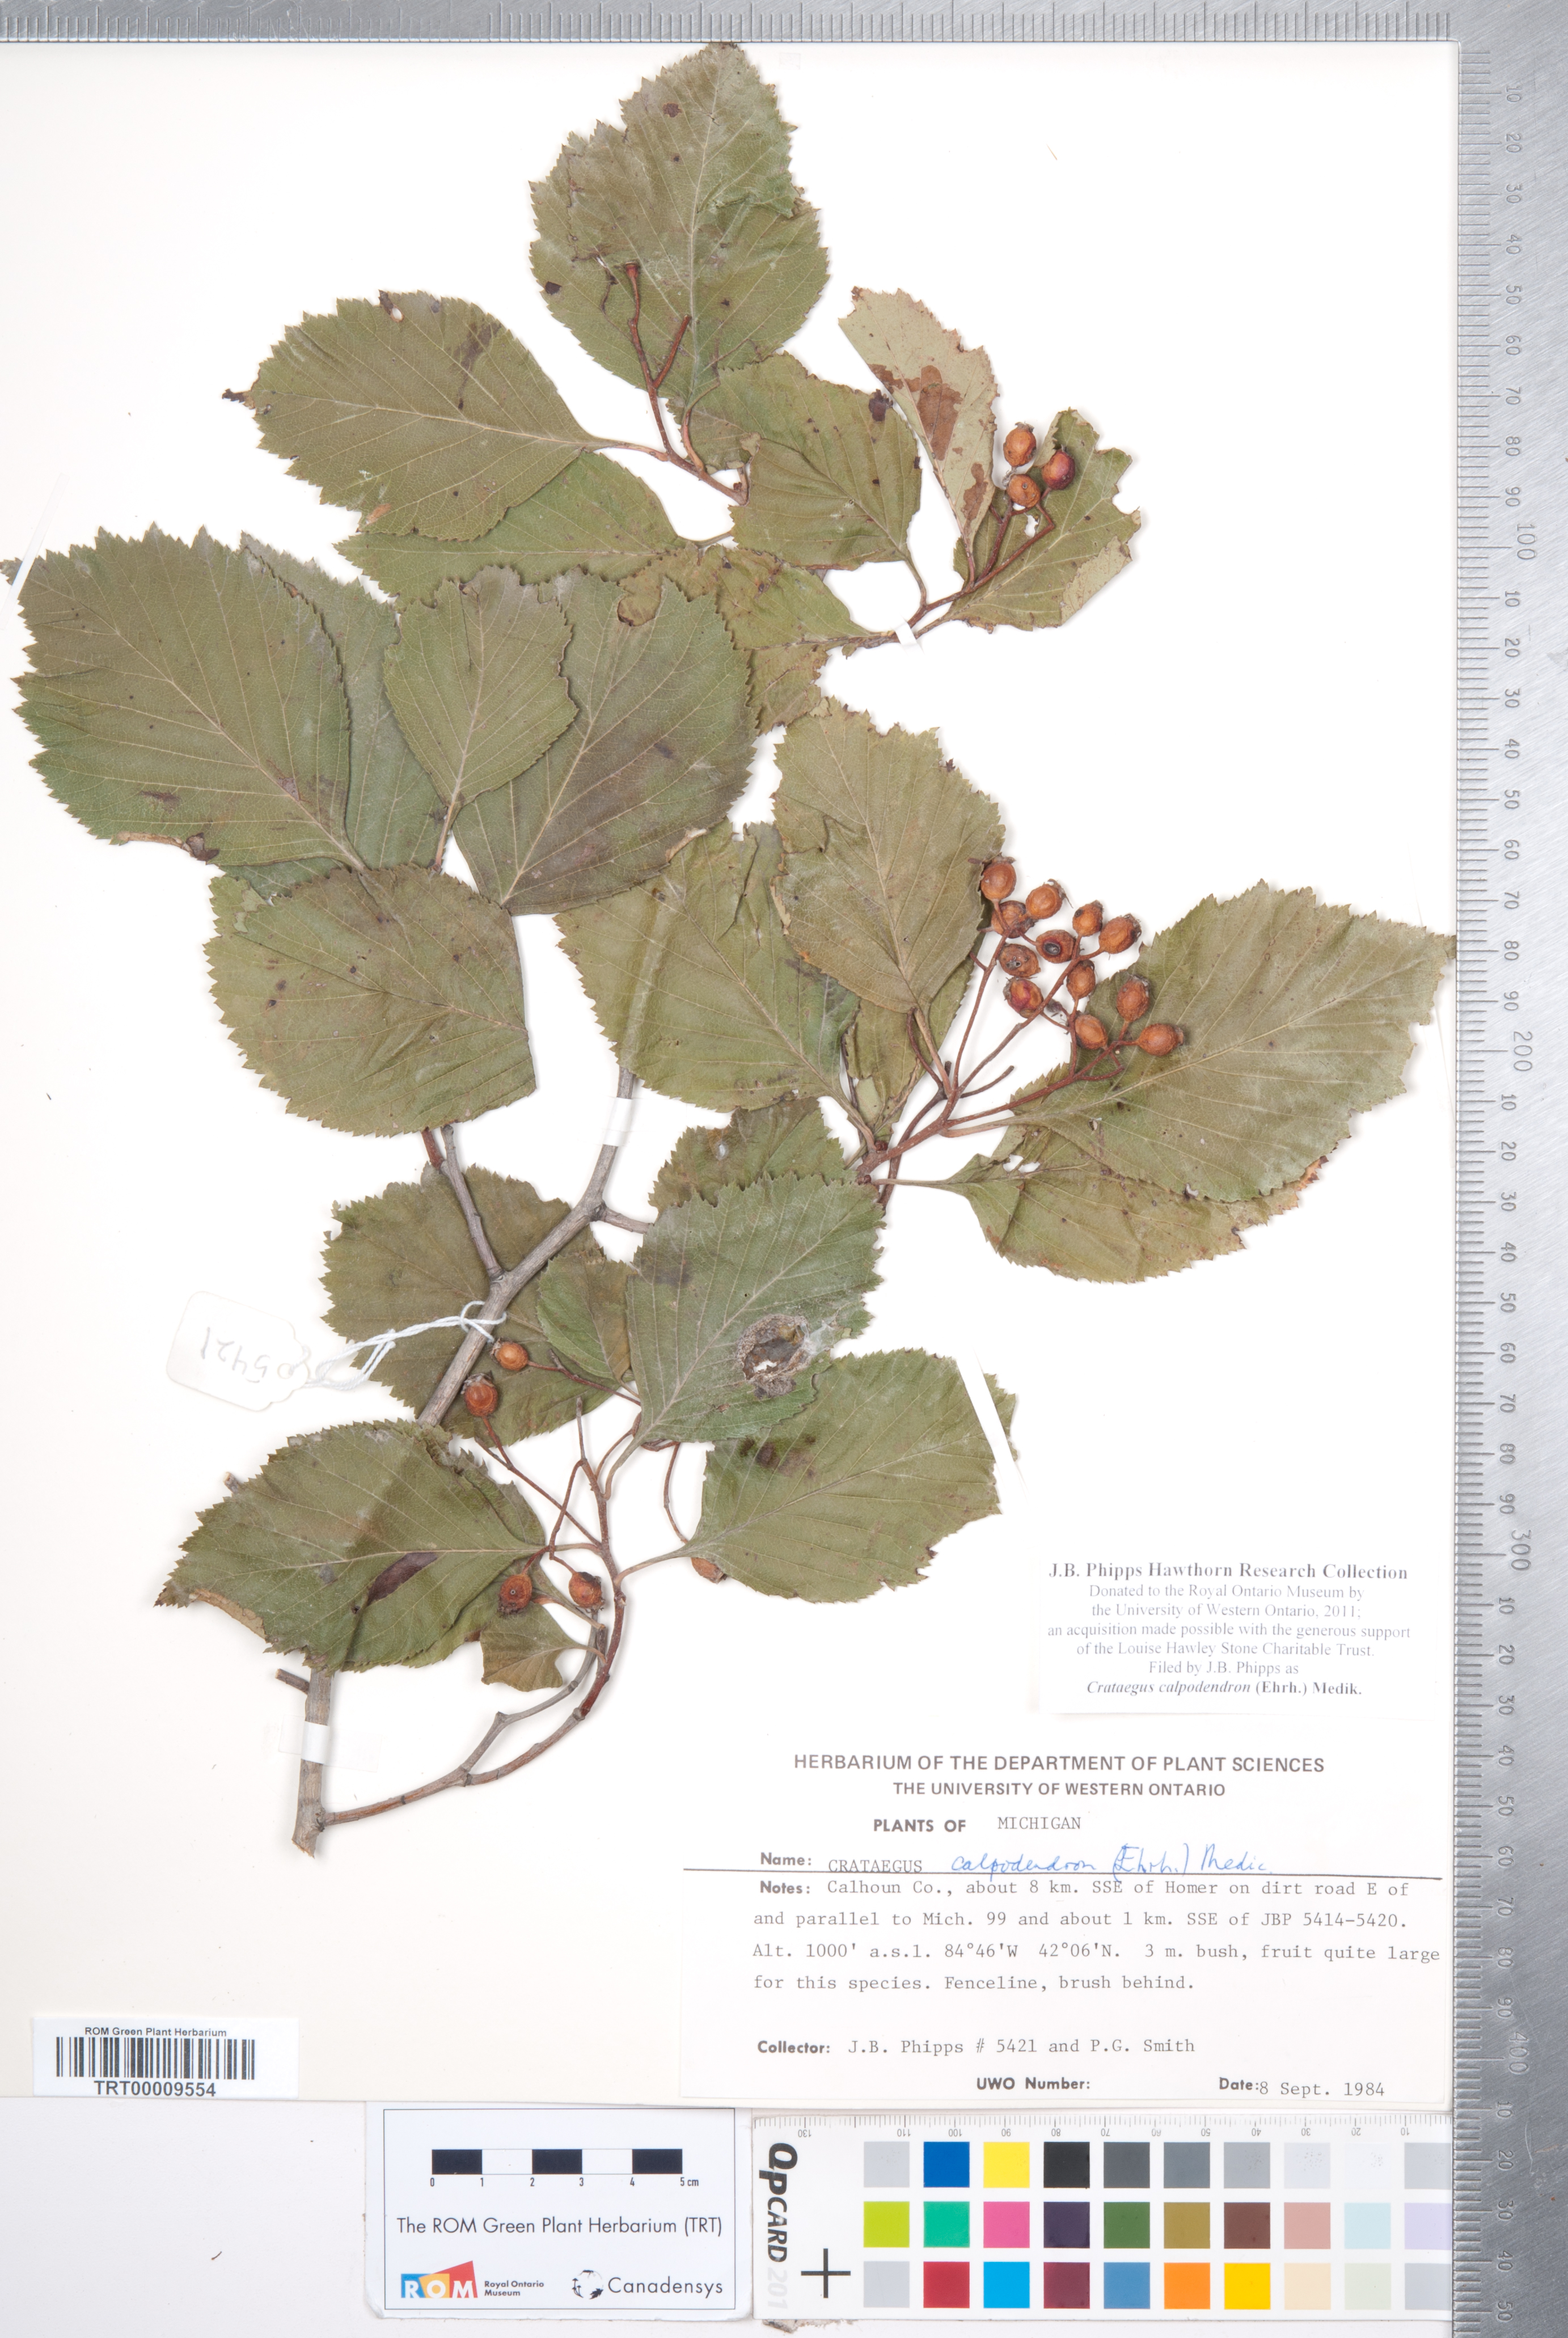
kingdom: Plantae
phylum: Tracheophyta
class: Magnoliopsida
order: Rosales
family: Rosaceae
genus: Crataegus
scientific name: Crataegus calpodendron
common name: Pear hawthorn
